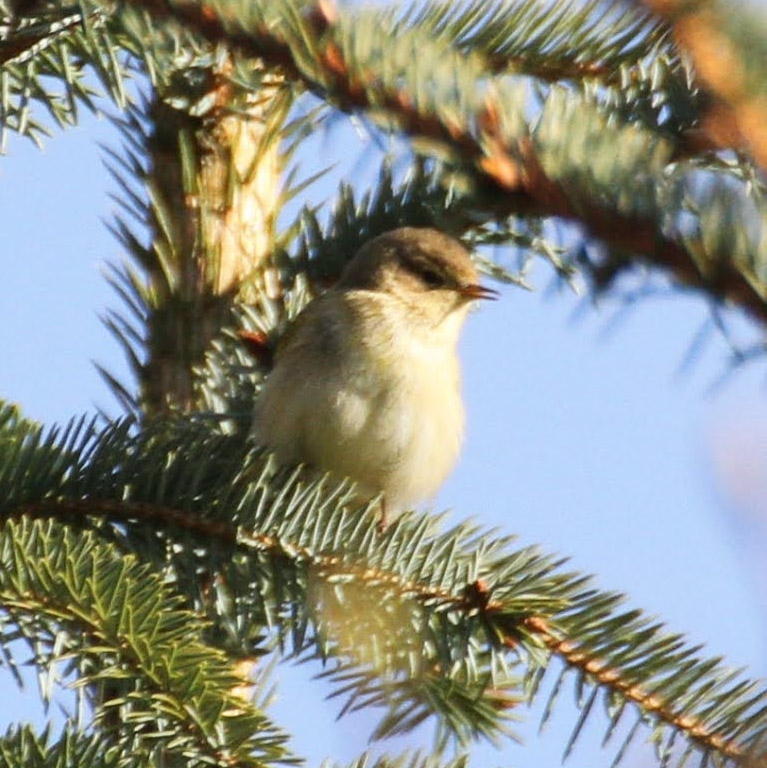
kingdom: Animalia
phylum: Chordata
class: Aves
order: Passeriformes
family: Phylloscopidae
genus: Phylloscopus
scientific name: Phylloscopus collybita
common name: Gransanger
